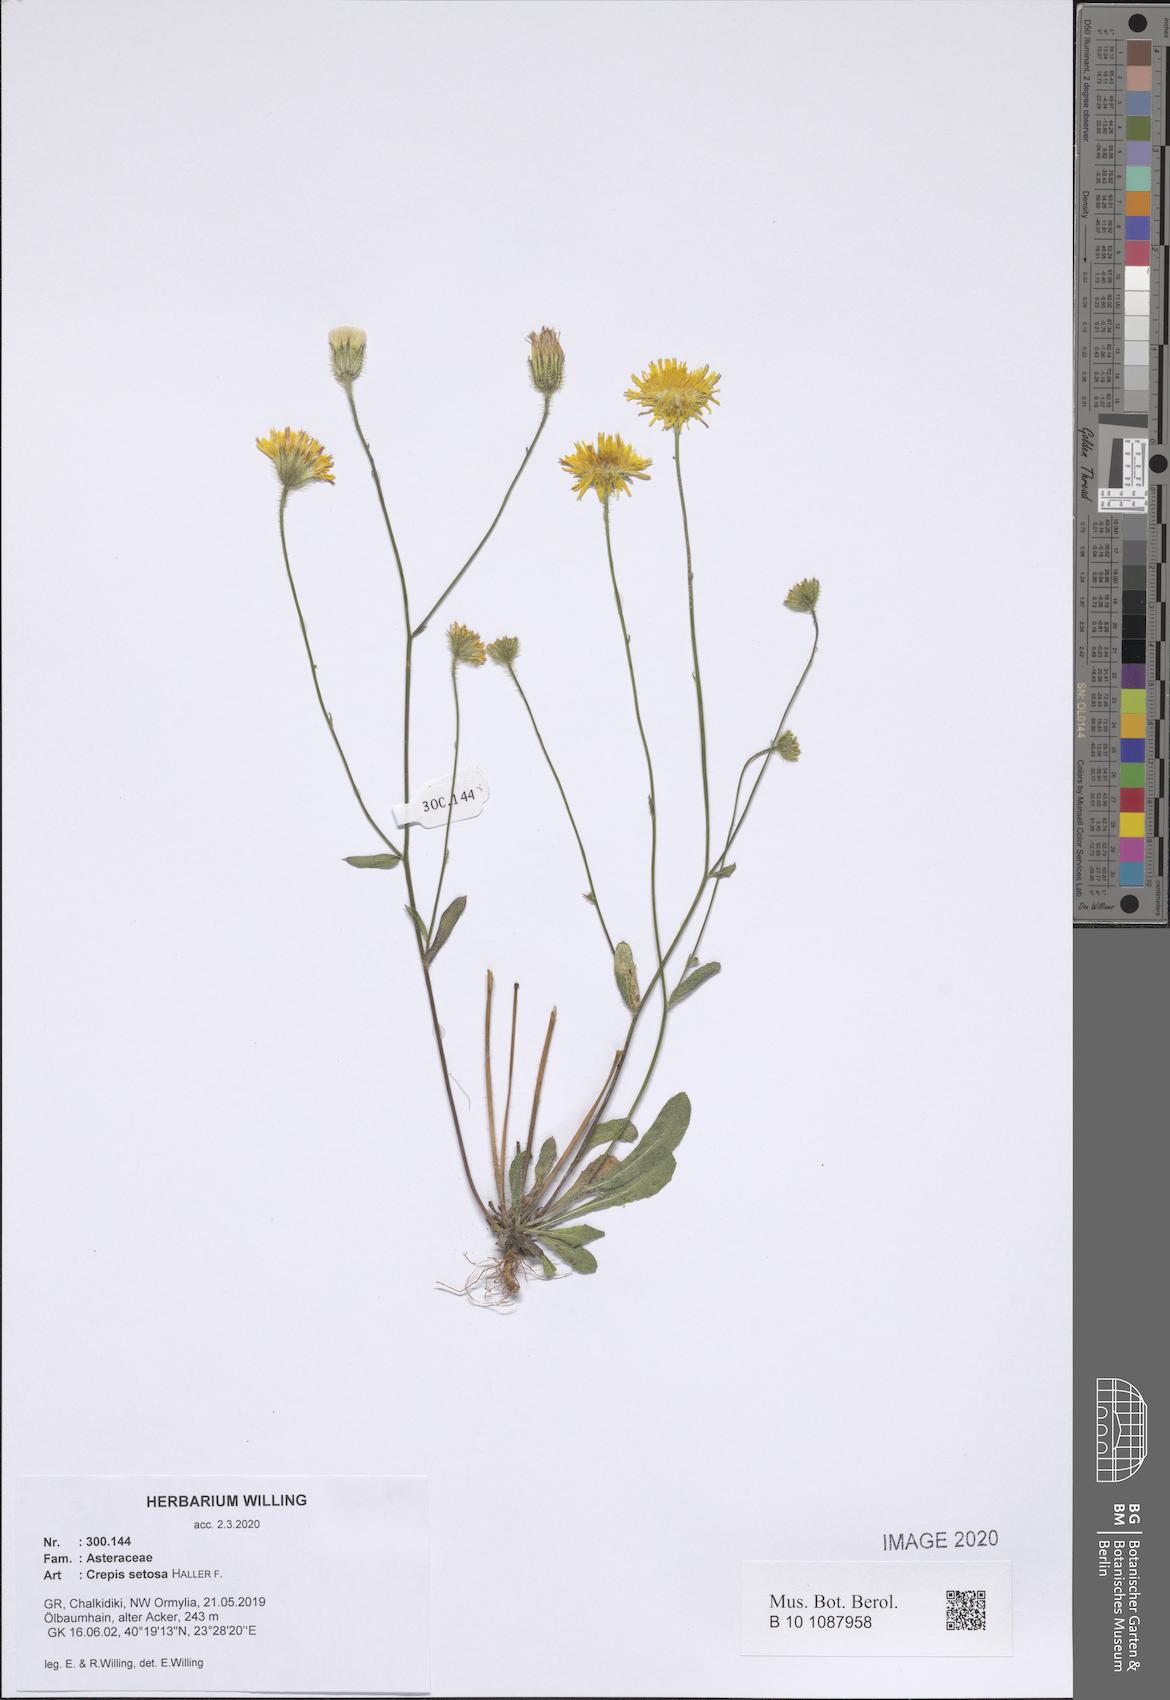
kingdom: Plantae
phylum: Tracheophyta
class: Magnoliopsida
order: Asterales
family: Asteraceae
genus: Crepis
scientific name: Crepis setosa
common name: Bristly hawk's-beard
